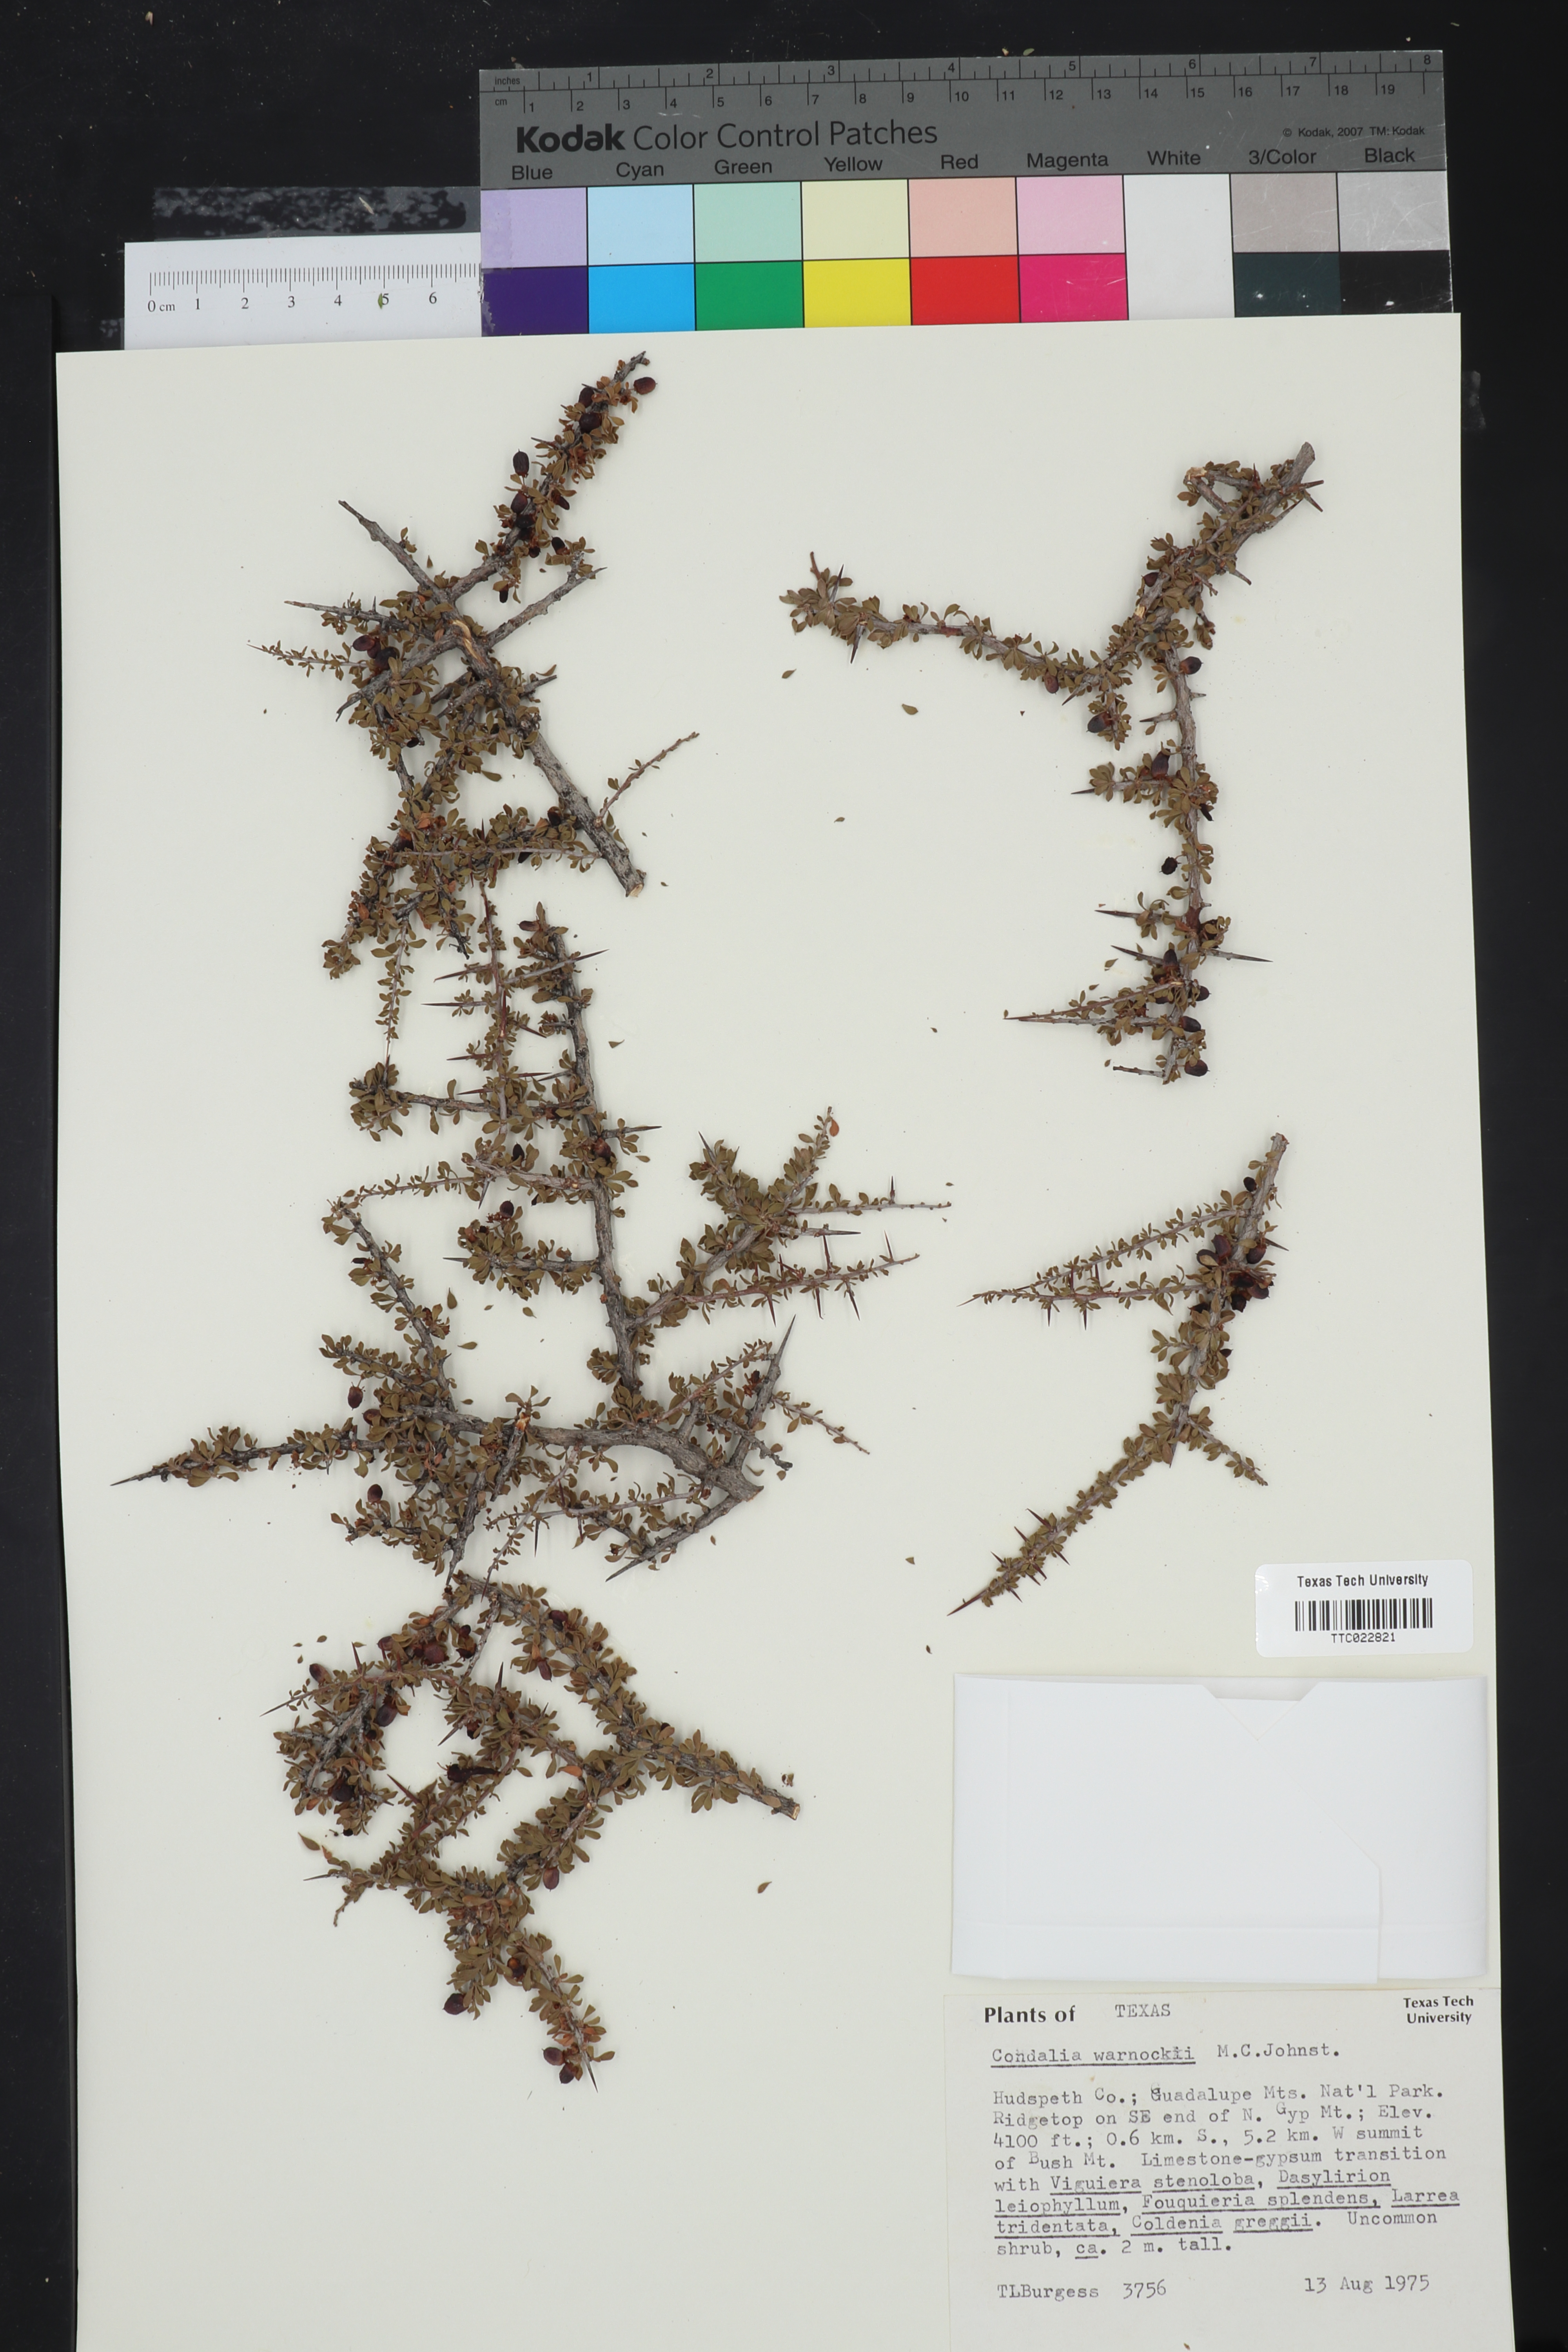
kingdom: Plantae
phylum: Tracheophyta
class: Magnoliopsida
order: Rosales
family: Rhamnaceae
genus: Condalia
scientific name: Condalia warnockii
